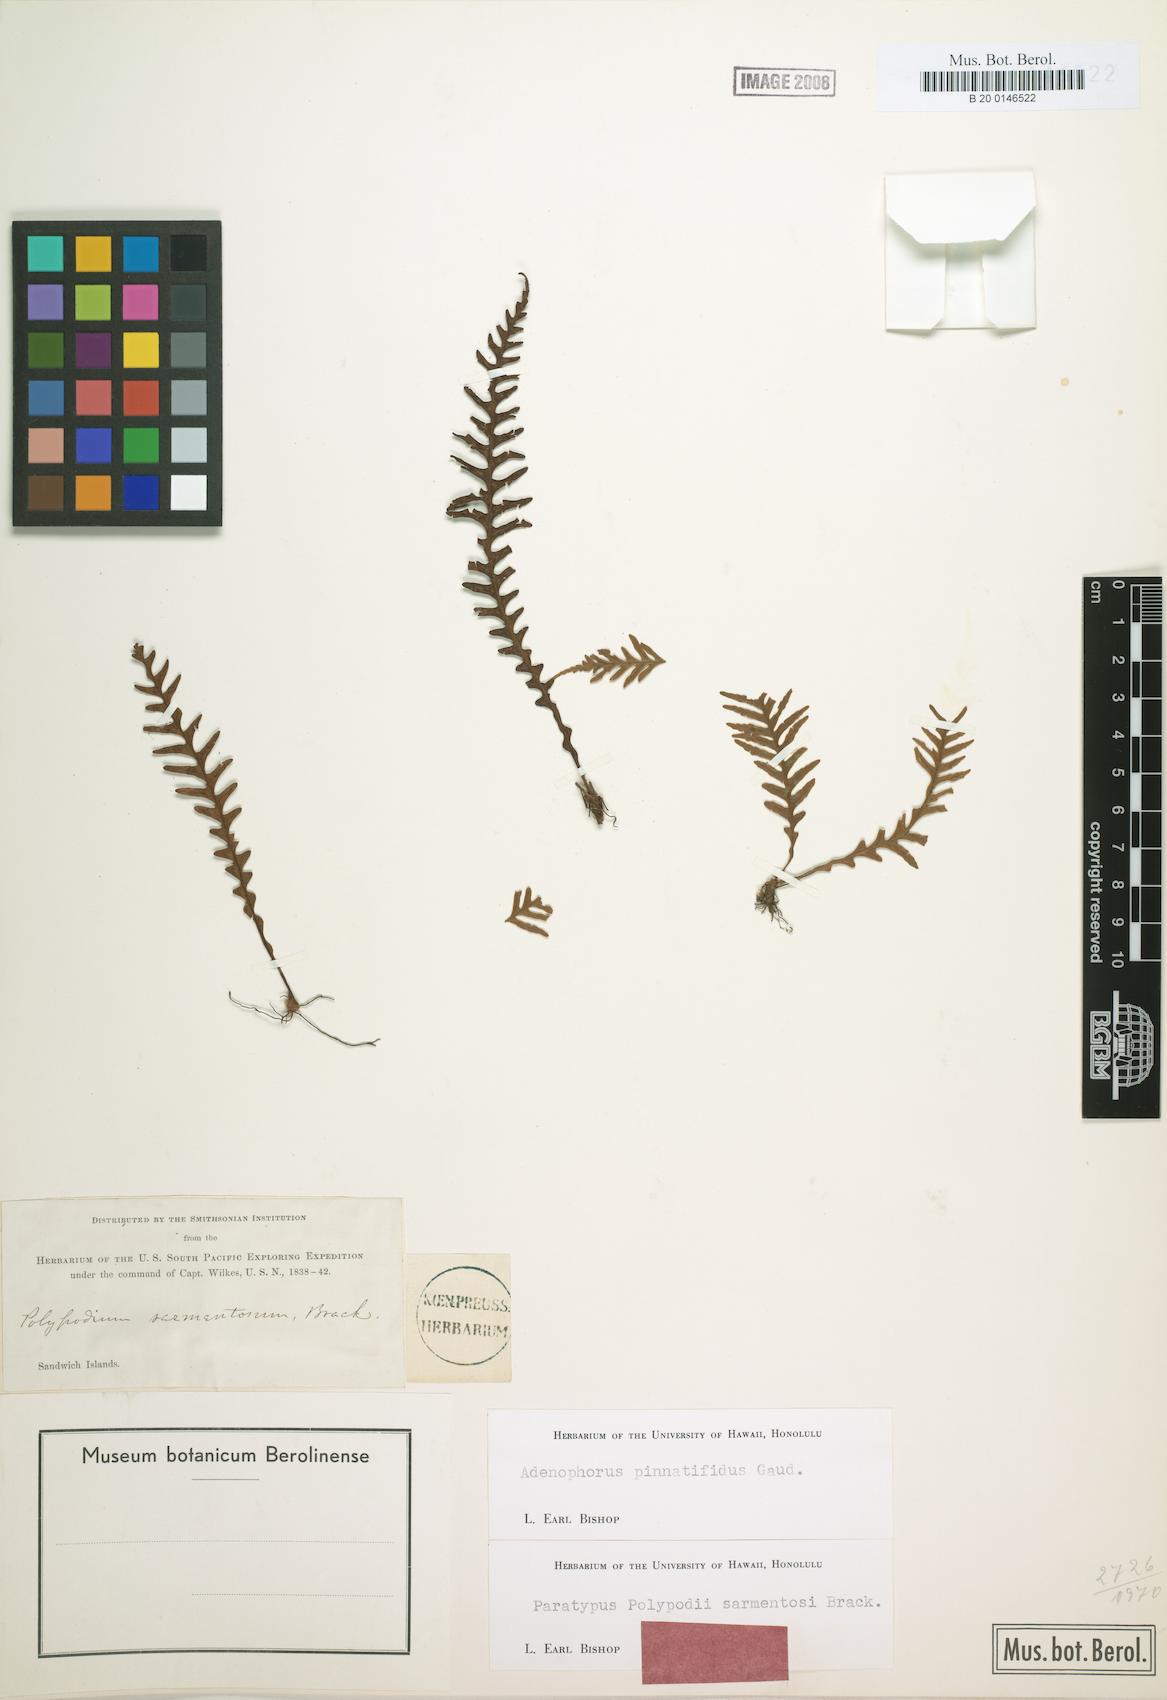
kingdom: Plantae
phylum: Tracheophyta
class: Polypodiopsida
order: Polypodiales
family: Polypodiaceae
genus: Adenophorus
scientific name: Adenophorus pinnatifidus
